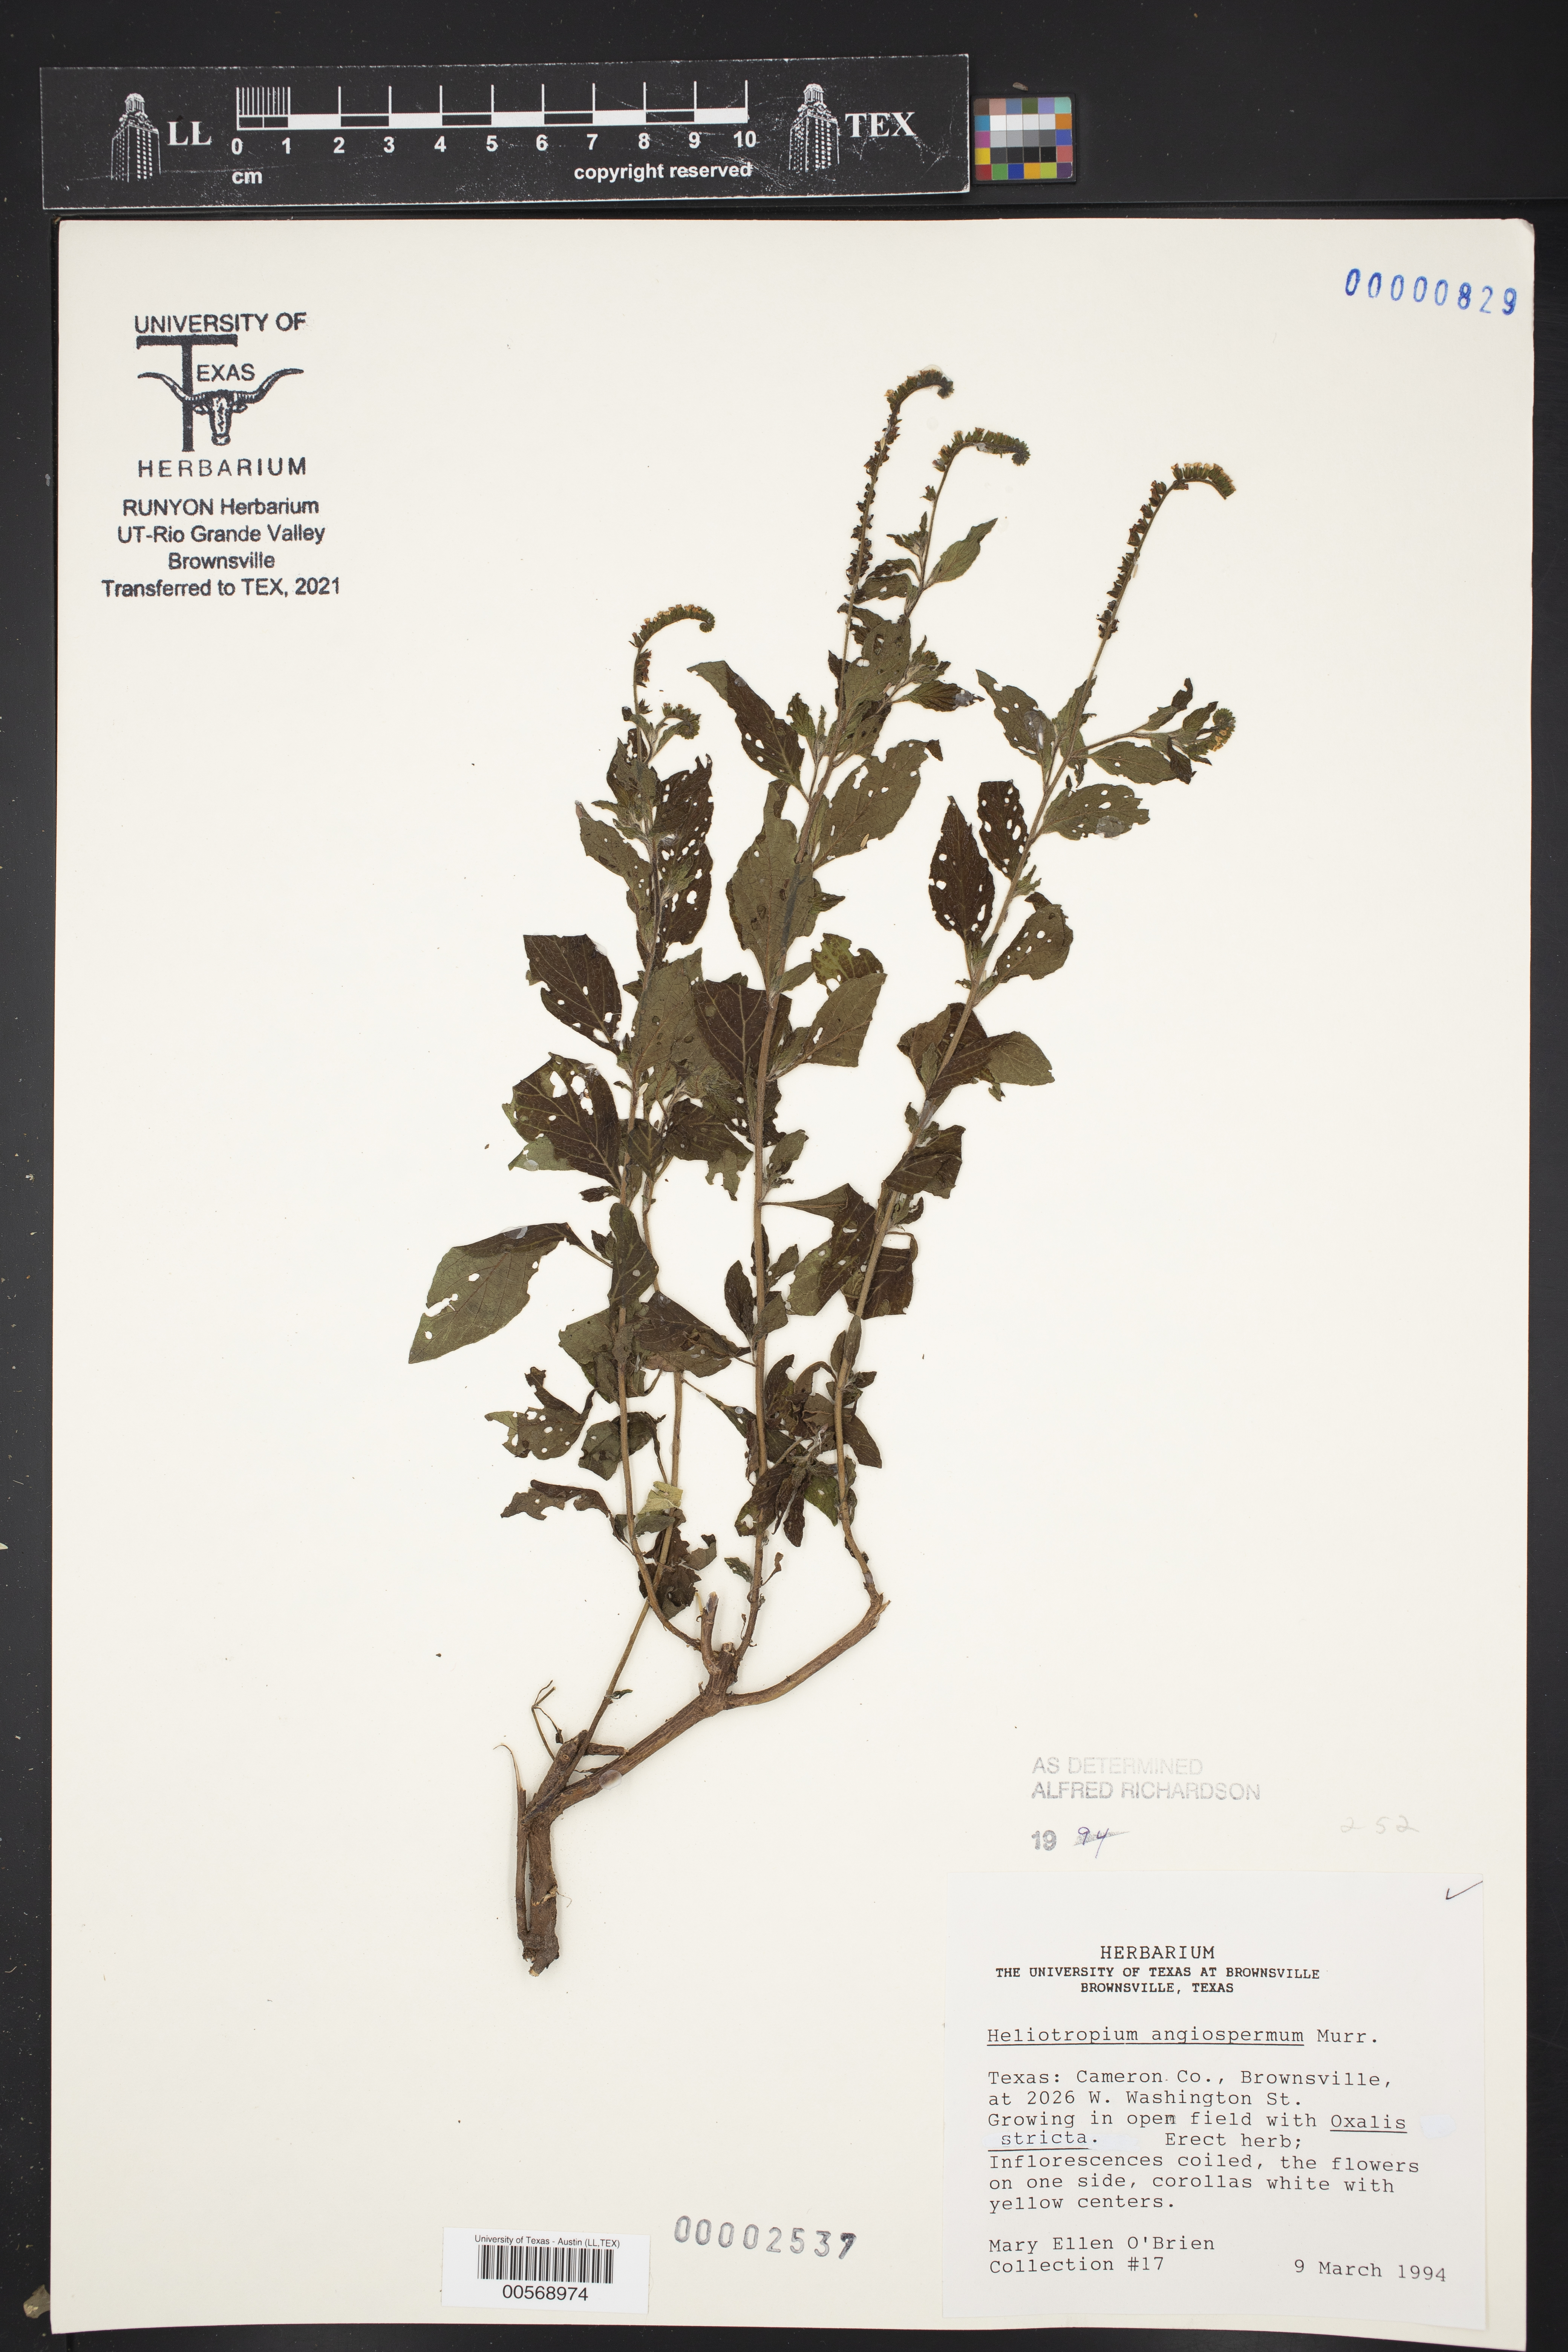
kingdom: Plantae
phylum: Tracheophyta
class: Magnoliopsida
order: Boraginales
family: Heliotropiaceae
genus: Heliotropium
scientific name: Heliotropium angiospermum
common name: Eye bright
